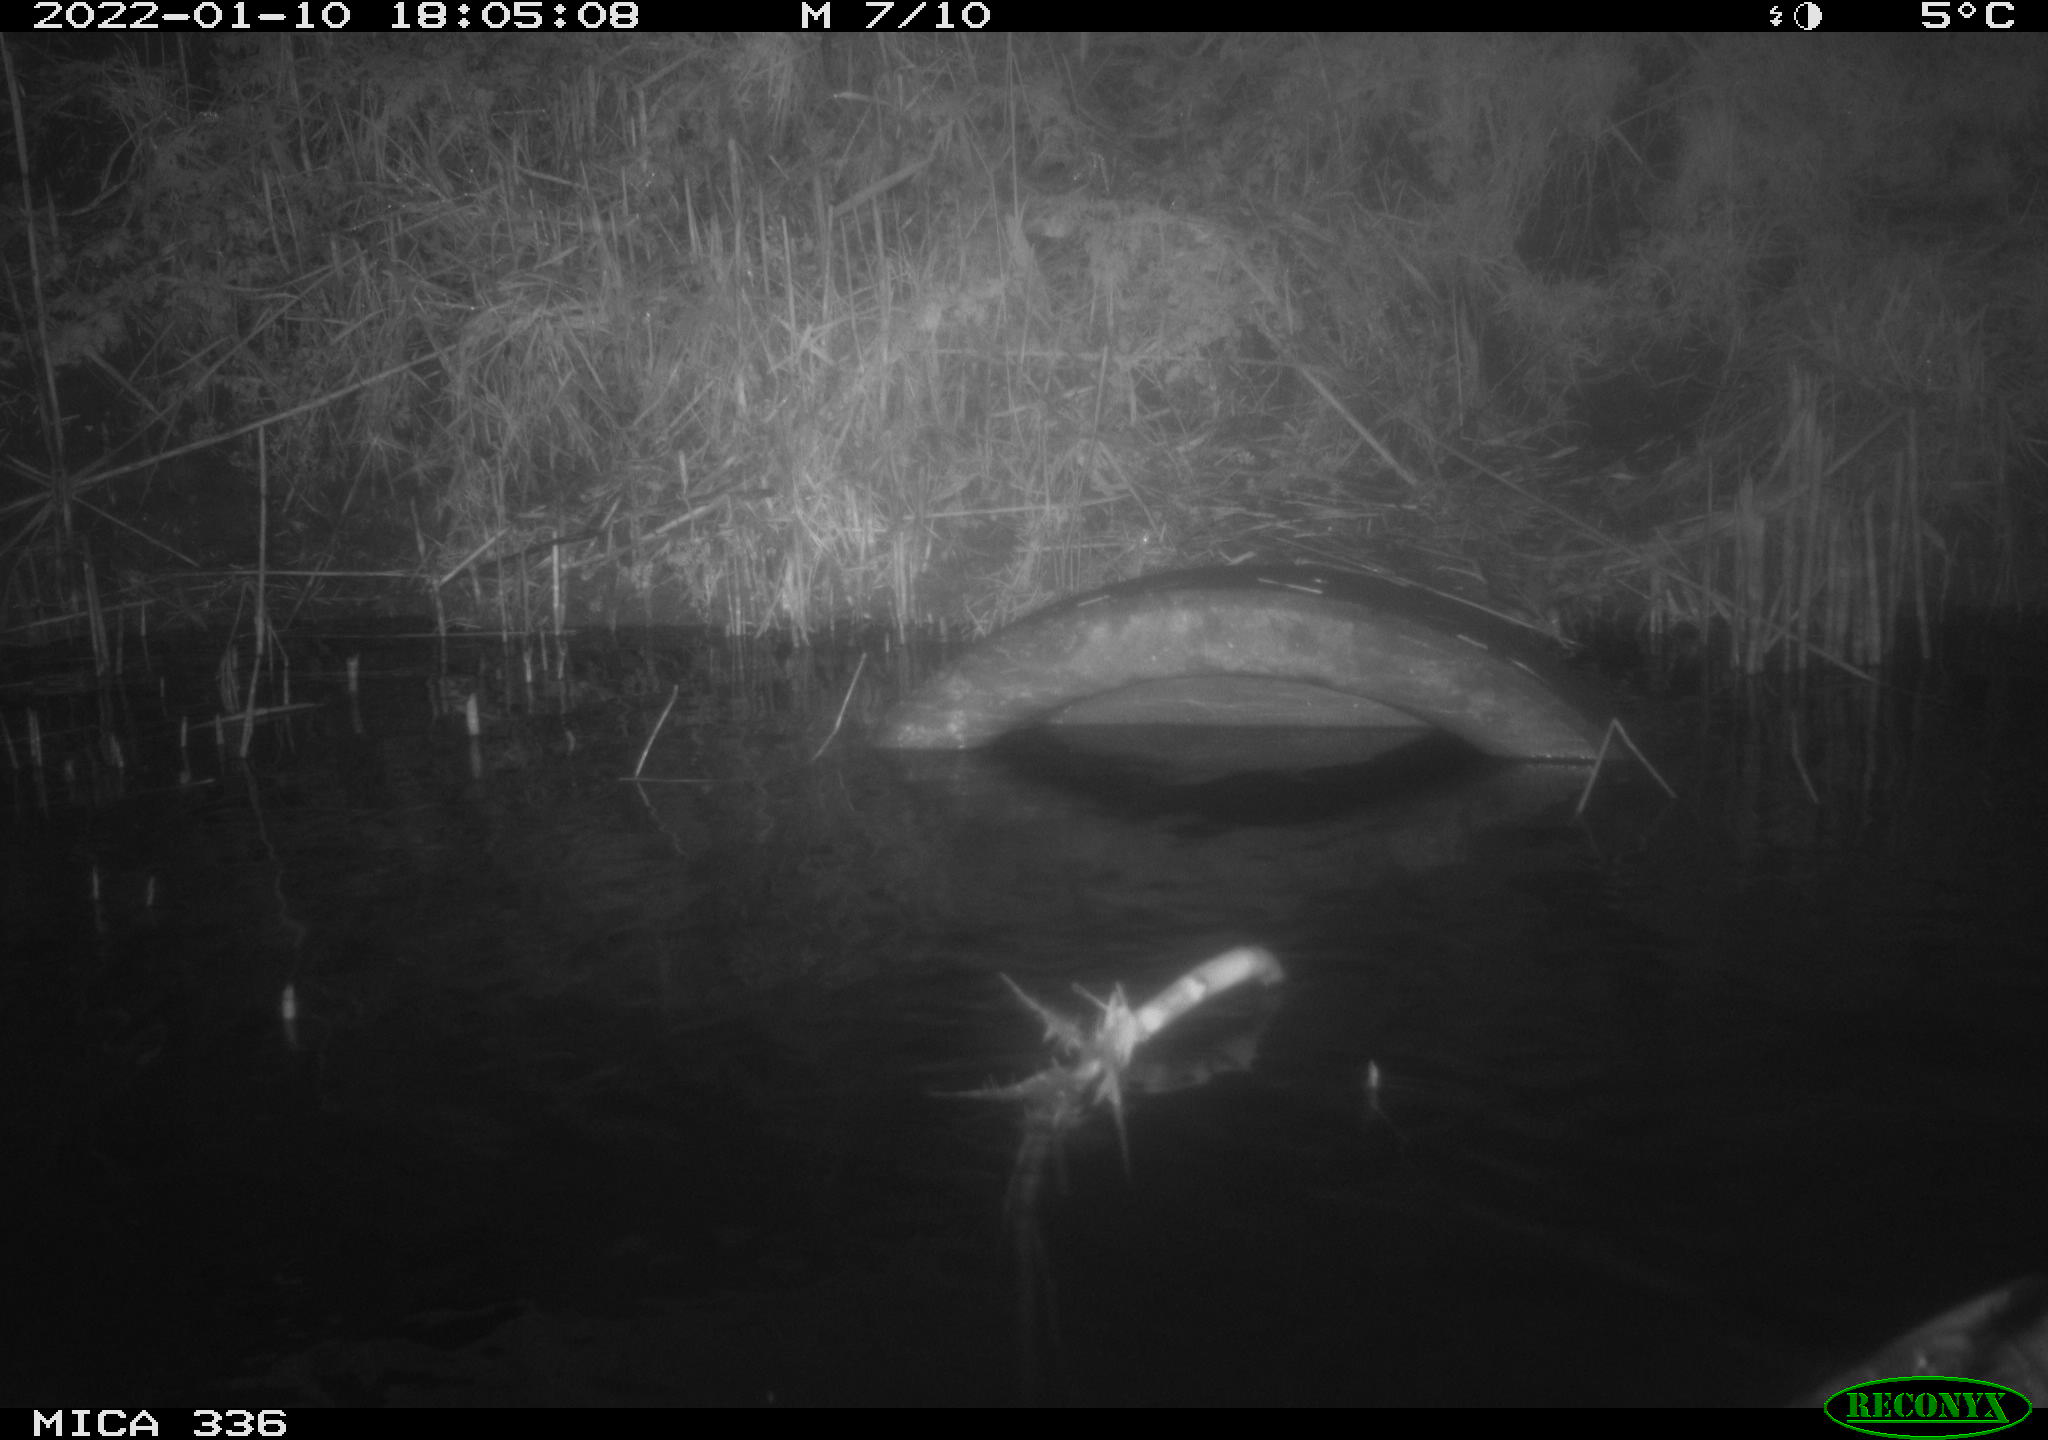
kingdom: Animalia
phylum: Chordata
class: Aves
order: Anseriformes
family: Anatidae
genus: Anas
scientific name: Anas platyrhynchos
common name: Mallard
